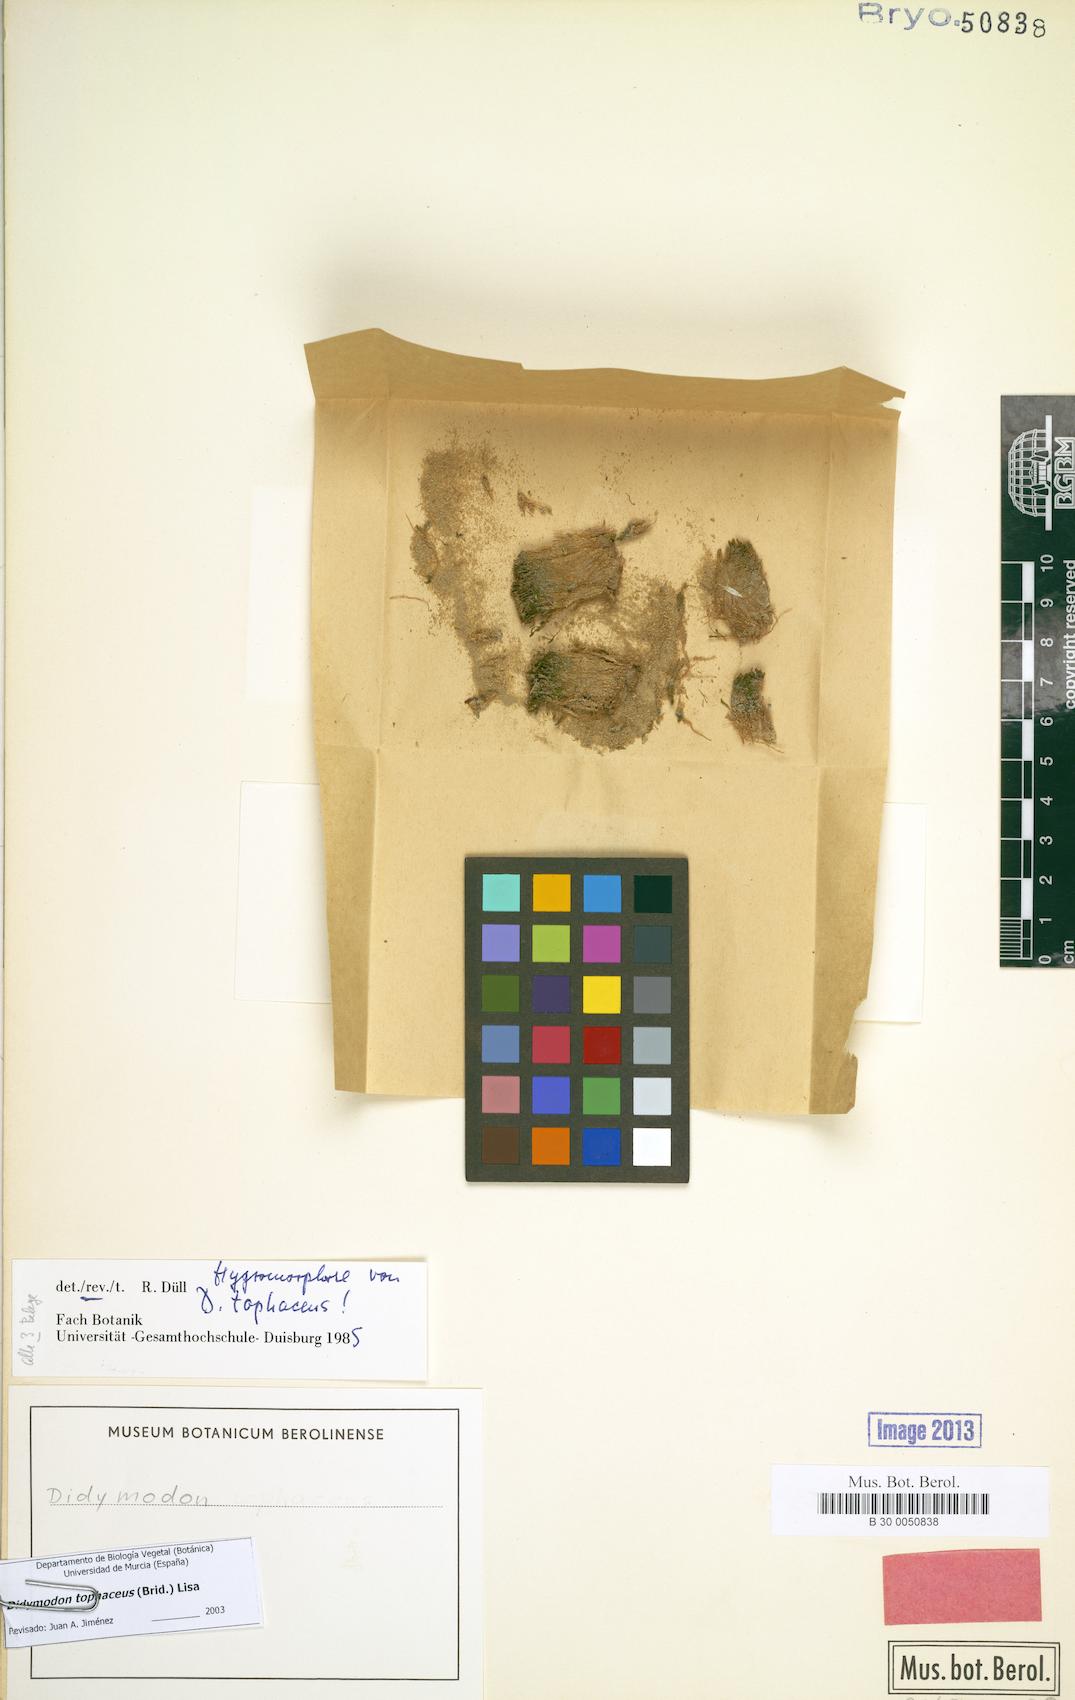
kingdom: Plantae
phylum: Bryophyta
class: Bryopsida
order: Pottiales
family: Pottiaceae
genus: Geheebia
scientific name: Geheebia tophacea
